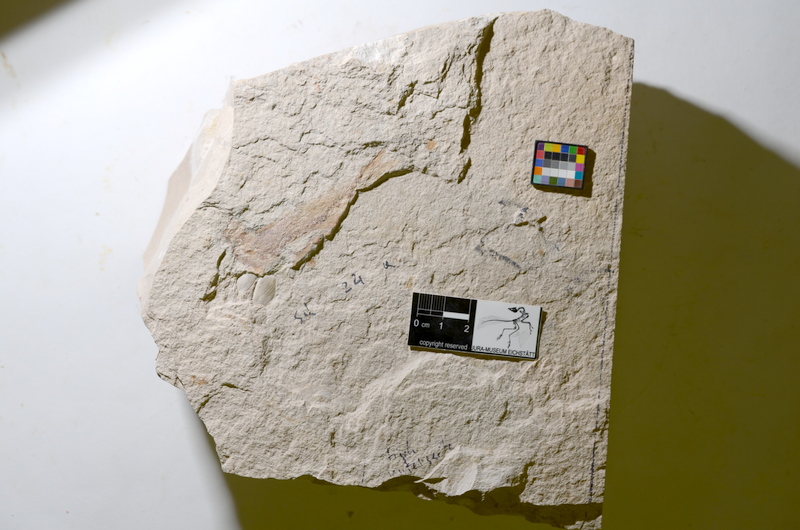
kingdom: Animalia
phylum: Chordata
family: Ascalaboidae
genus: Tharsis
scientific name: Tharsis dubius
